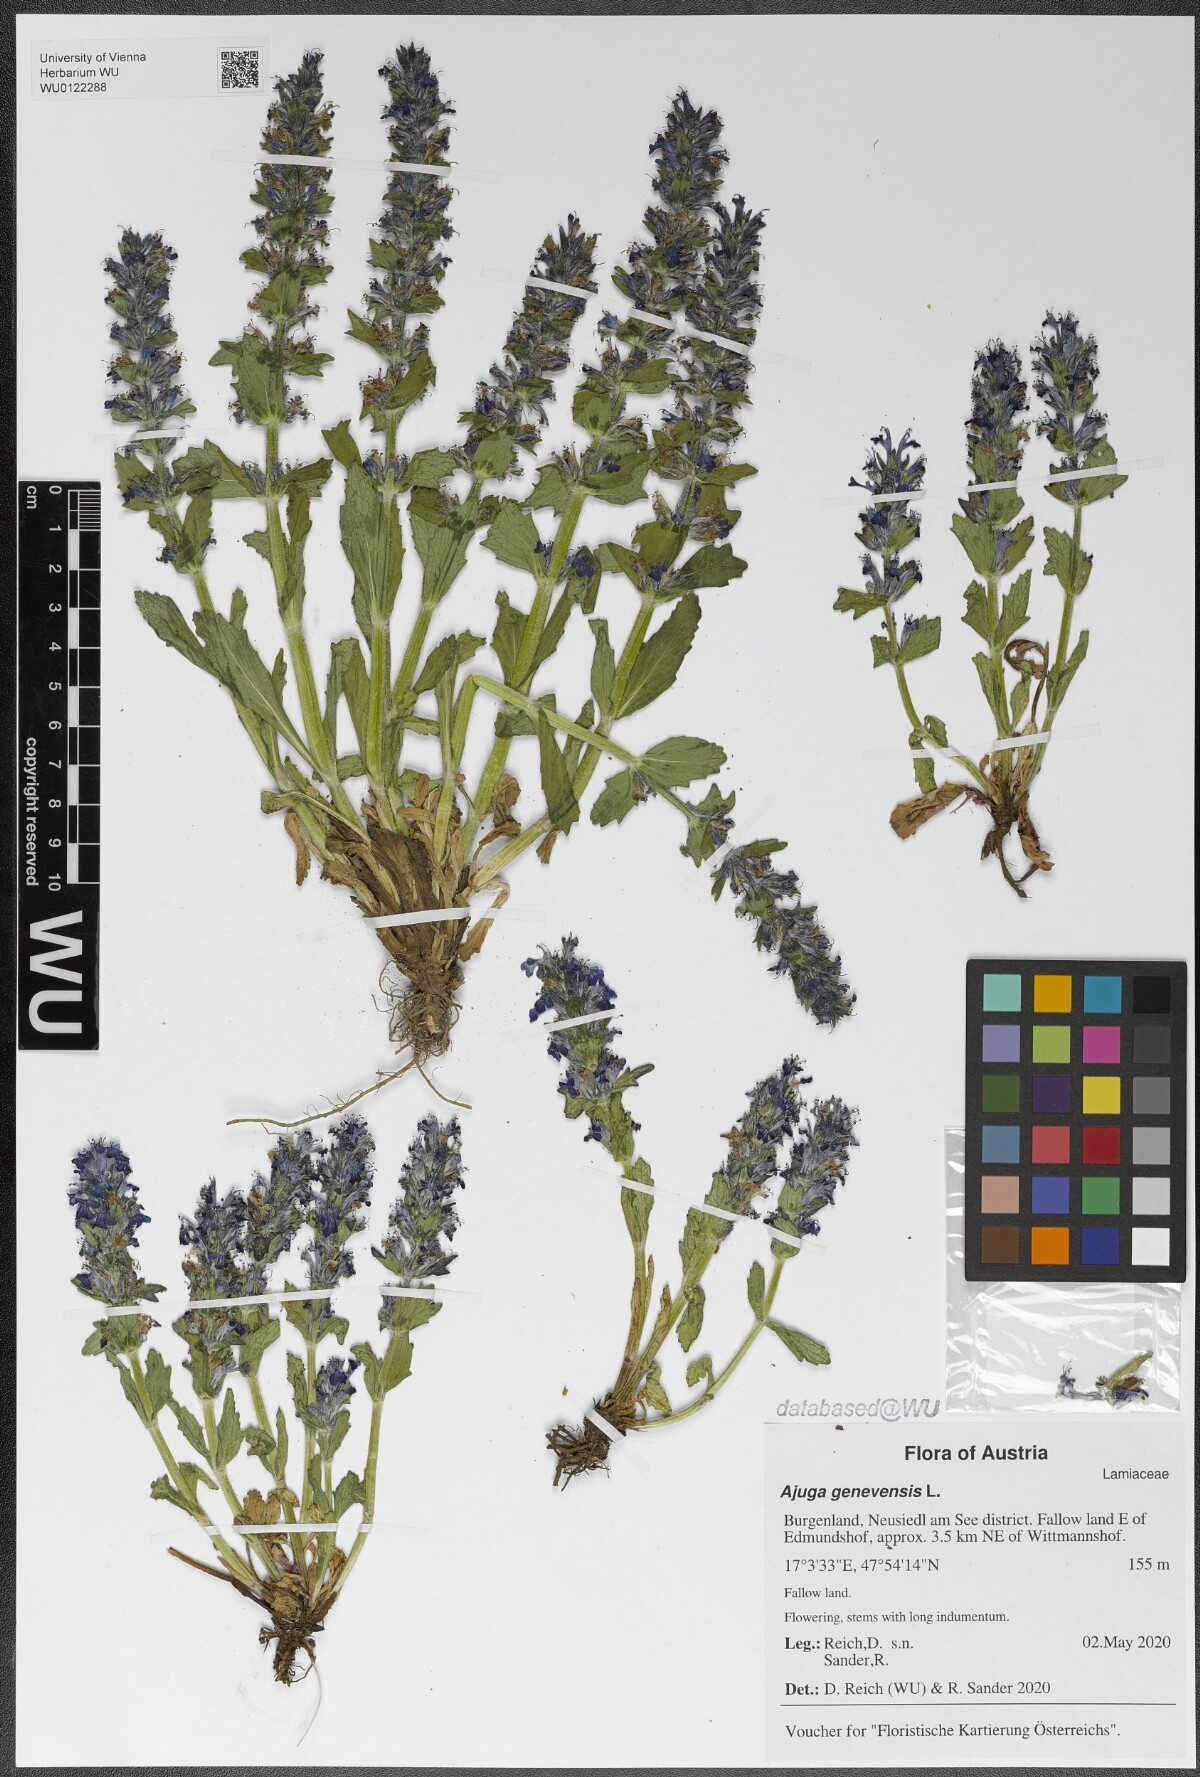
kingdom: Plantae
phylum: Tracheophyta
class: Magnoliopsida
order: Lamiales
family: Lamiaceae
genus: Ajuga
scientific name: Ajuga genevensis
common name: Blue bugle
